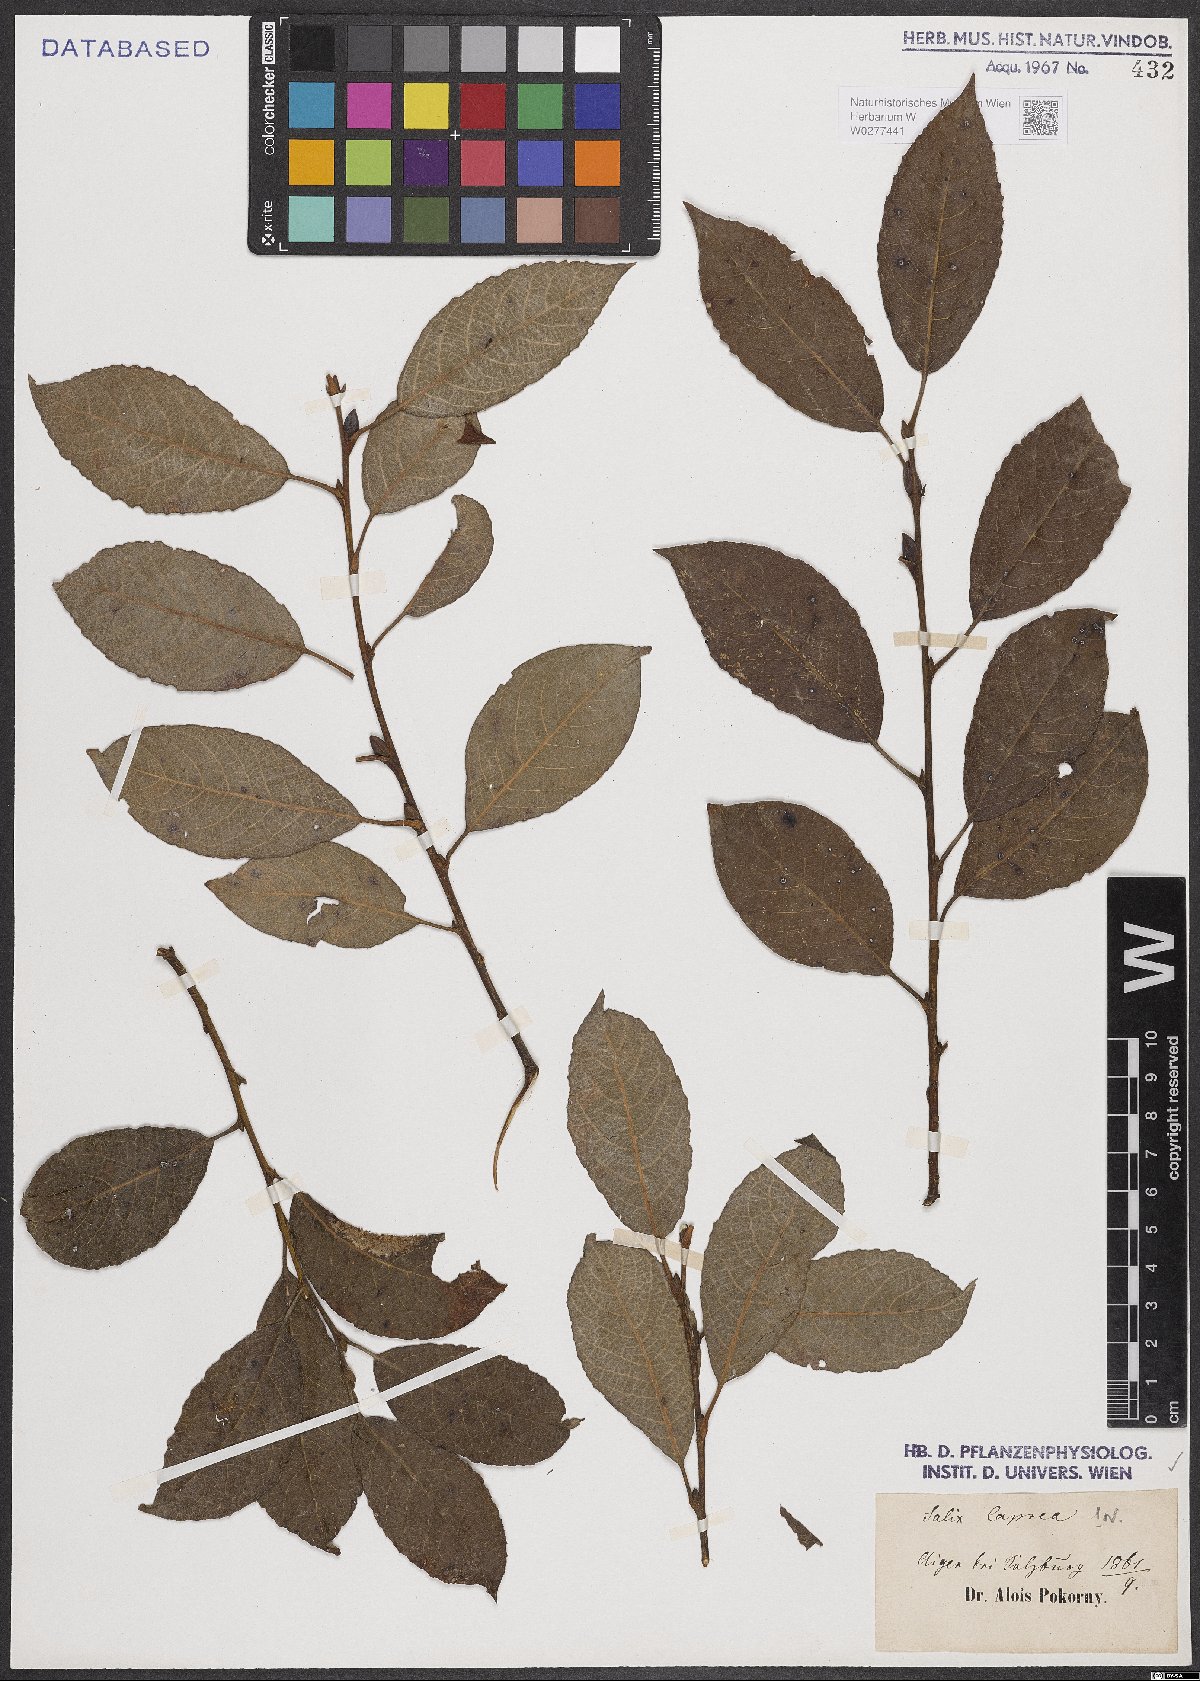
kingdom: Plantae
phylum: Tracheophyta
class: Magnoliopsida
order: Malpighiales
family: Salicaceae
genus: Salix
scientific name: Salix caprea
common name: Goat willow
